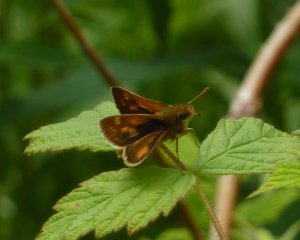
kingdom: Animalia
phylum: Arthropoda
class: Insecta
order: Lepidoptera
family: Hesperiidae
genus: Polites
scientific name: Polites coras
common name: Peck's Skipper
